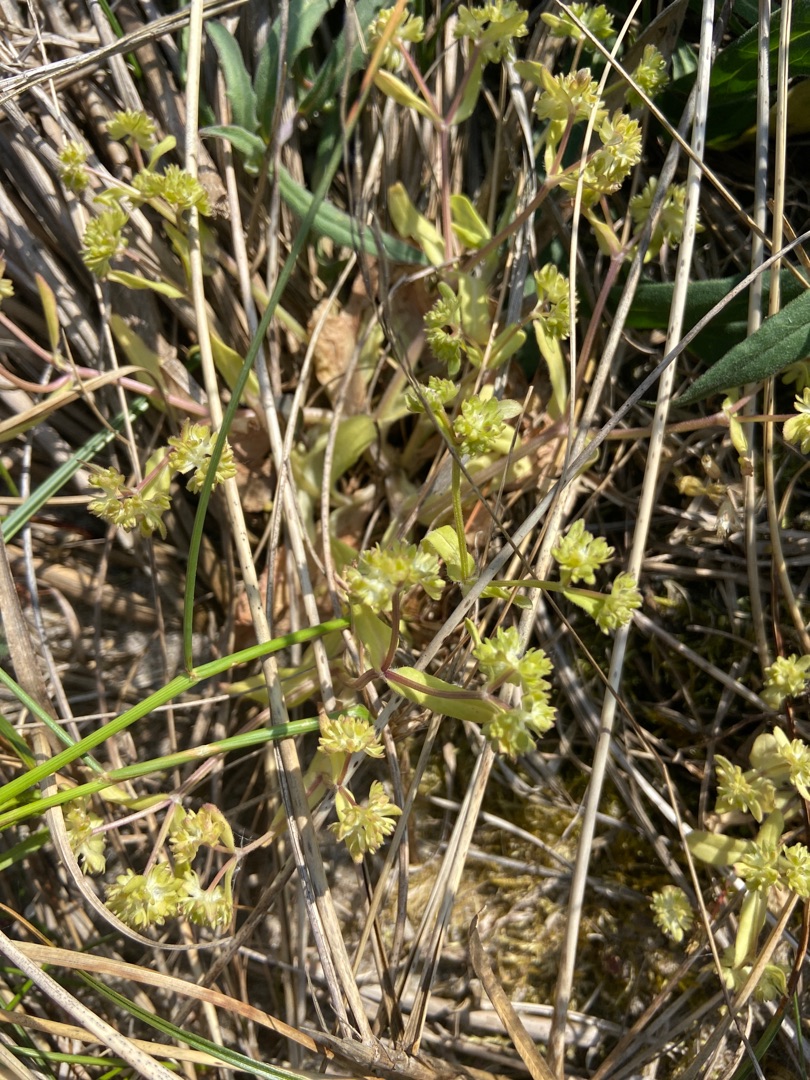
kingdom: Plantae
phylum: Tracheophyta
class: Magnoliopsida
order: Dipsacales
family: Caprifoliaceae
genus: Valerianella
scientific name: Valerianella locusta
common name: Tandfri vårsalat
